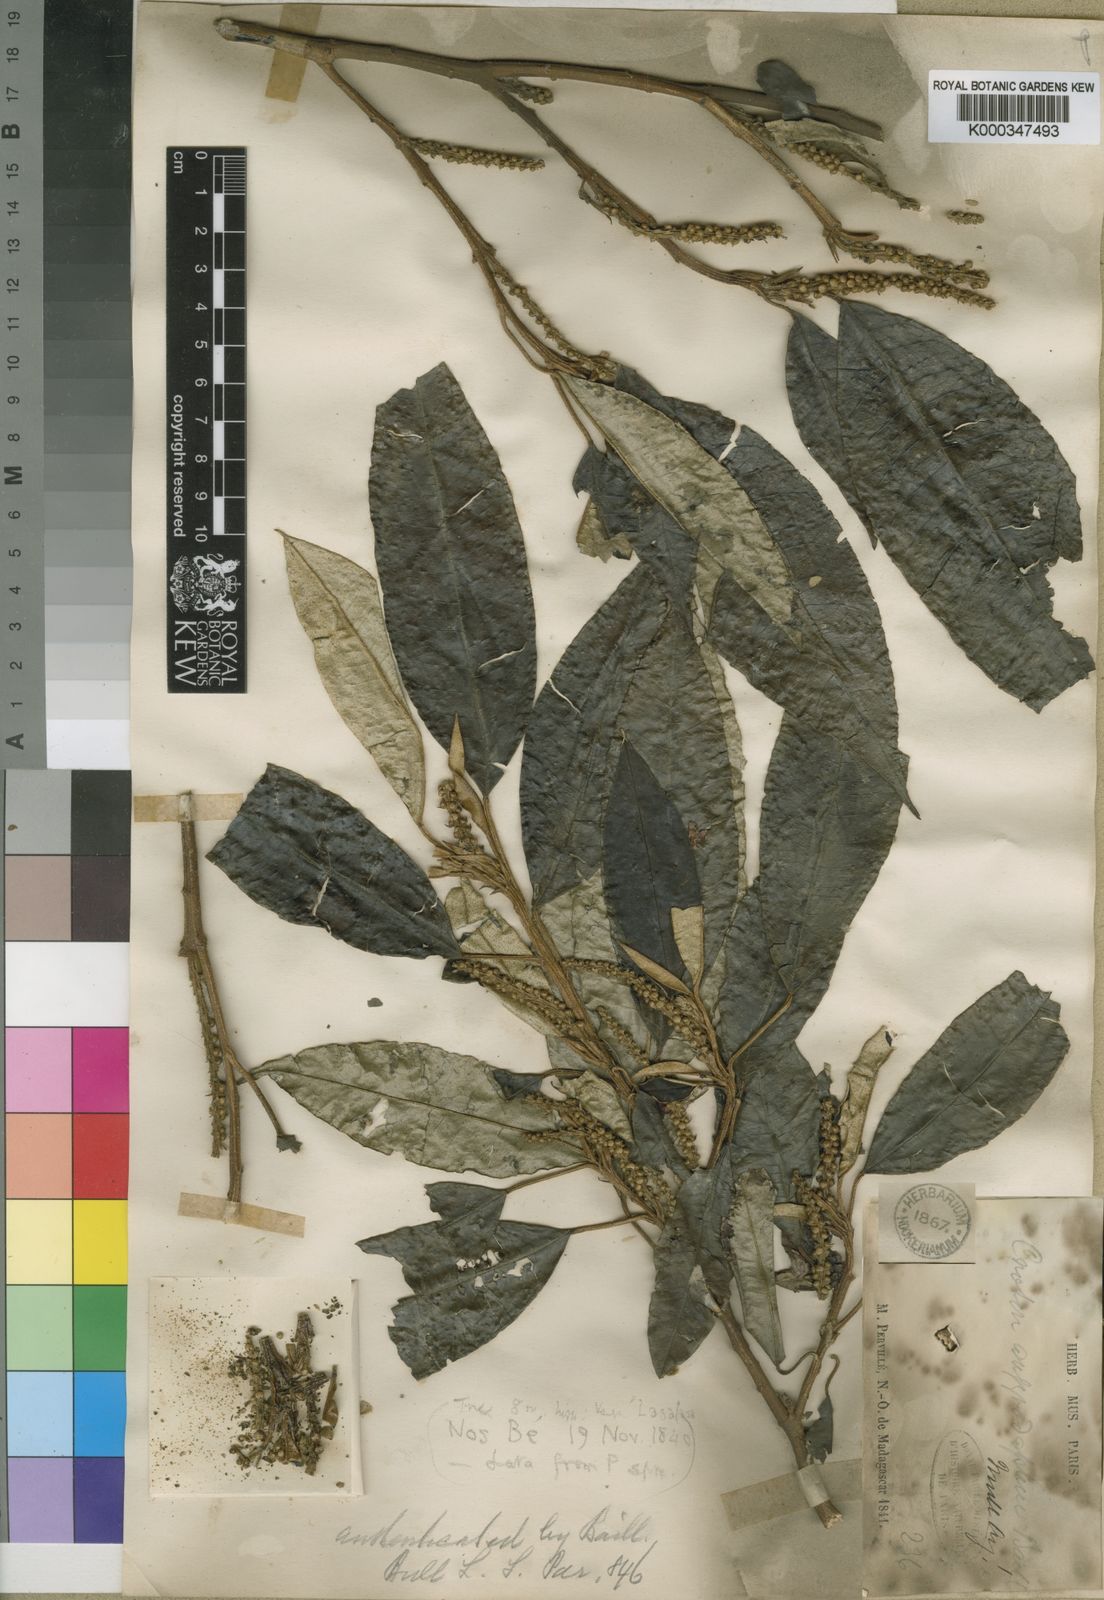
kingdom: Plantae
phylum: Tracheophyta
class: Magnoliopsida
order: Malpighiales
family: Euphorbiaceae
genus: Croton
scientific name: Croton argyrodaphne
